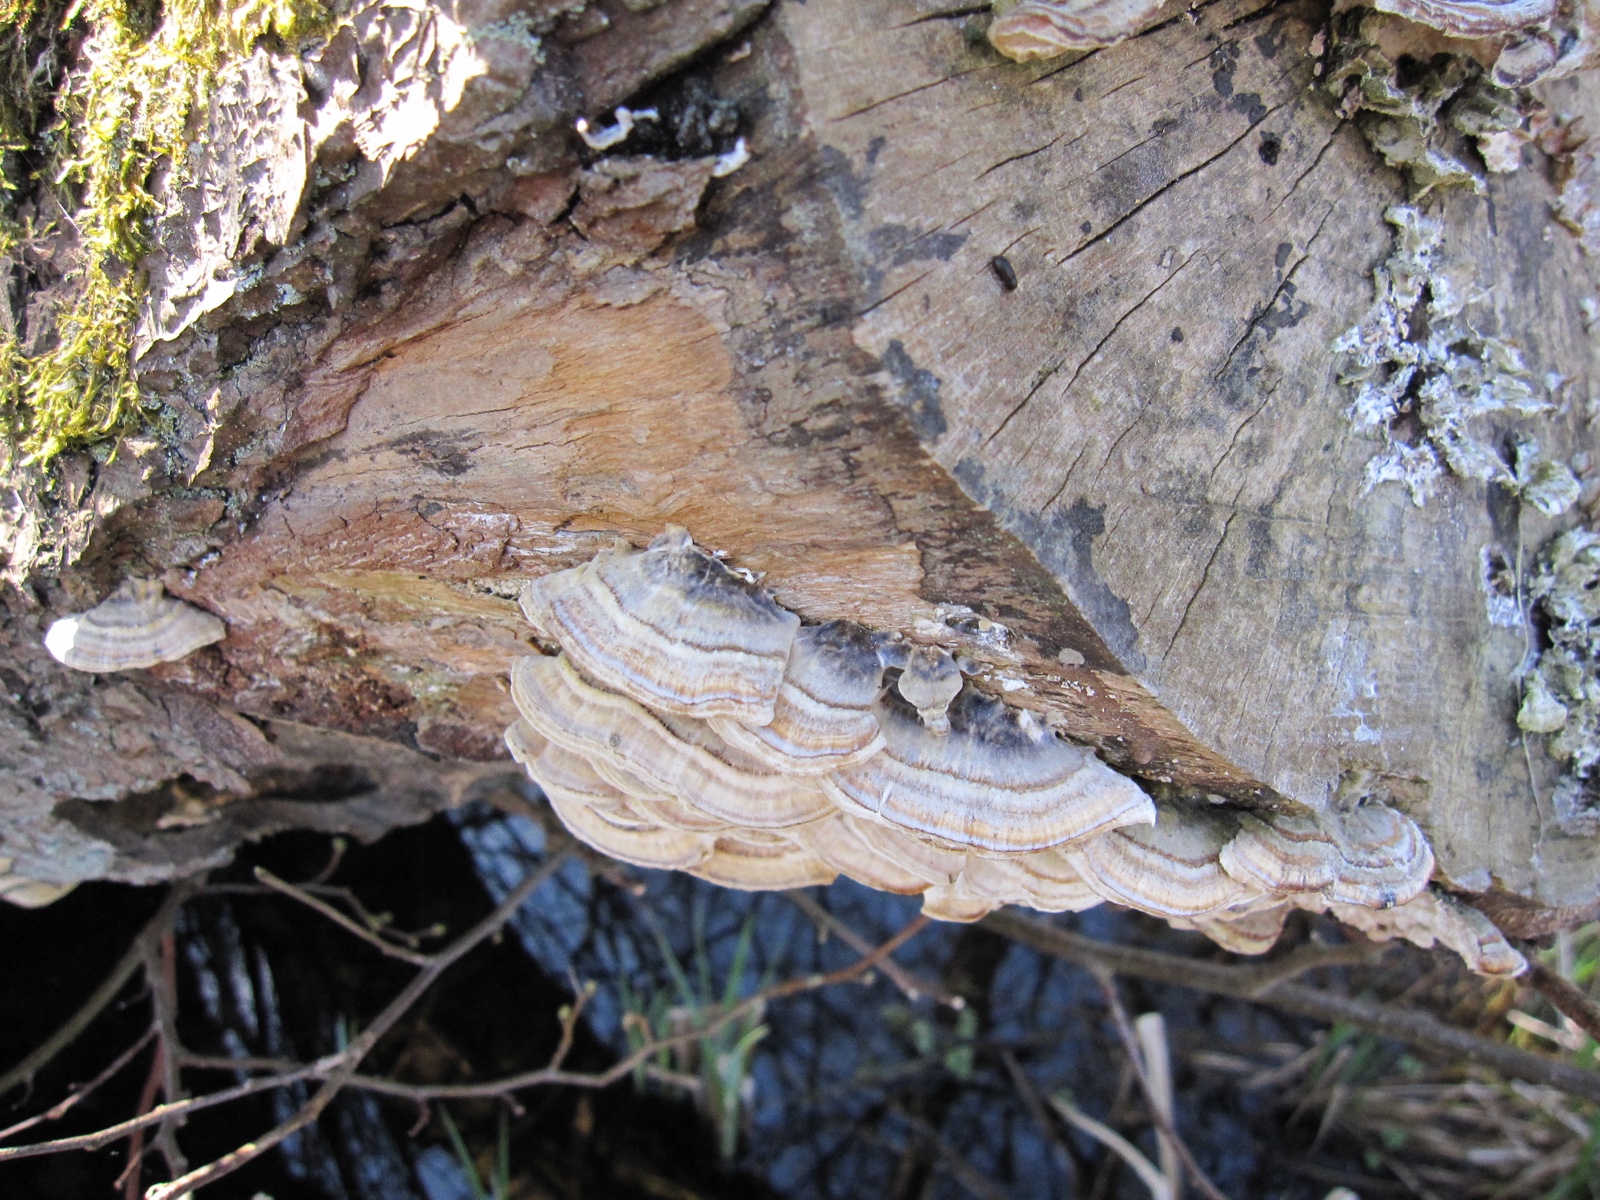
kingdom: Fungi
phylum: Basidiomycota
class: Agaricomycetes
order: Polyporales
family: Polyporaceae
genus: Trametes
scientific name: Trametes versicolor
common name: broget læderporesvamp
